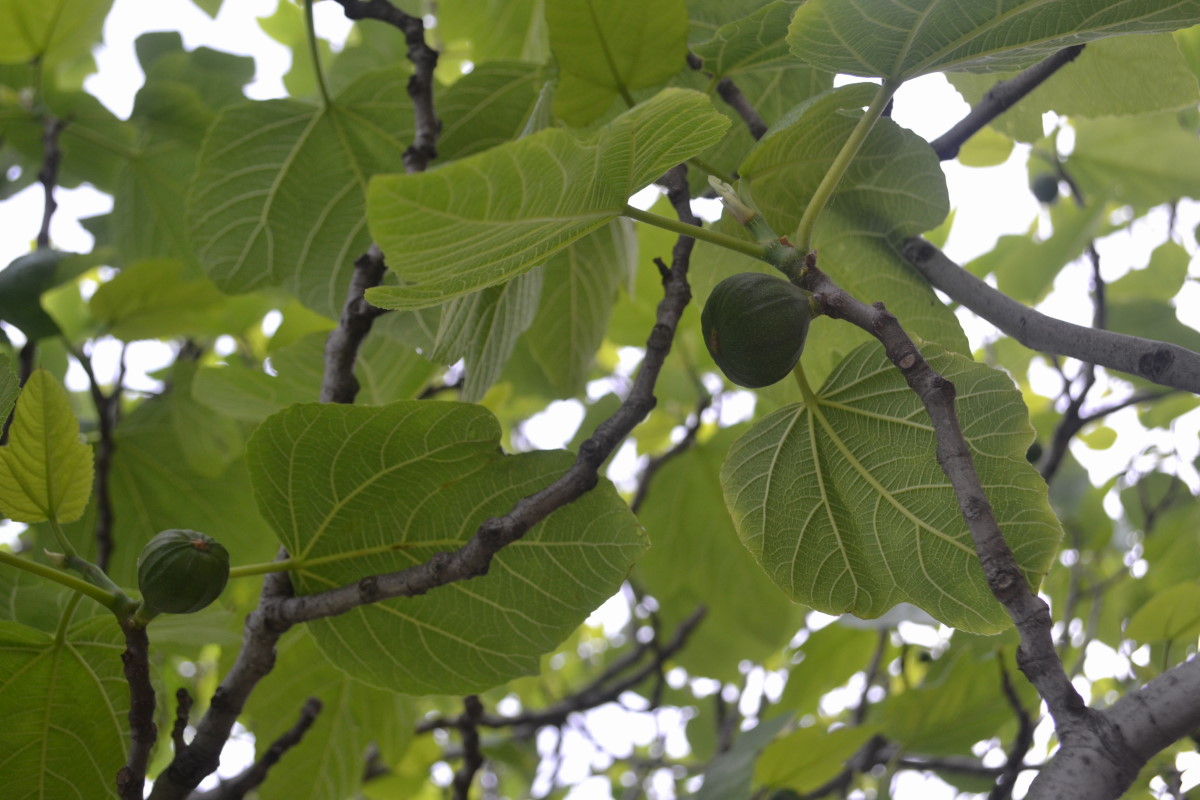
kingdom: Plantae
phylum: Tracheophyta
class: Magnoliopsida
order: Rosales
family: Moraceae
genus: Ficus
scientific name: Ficus carica
